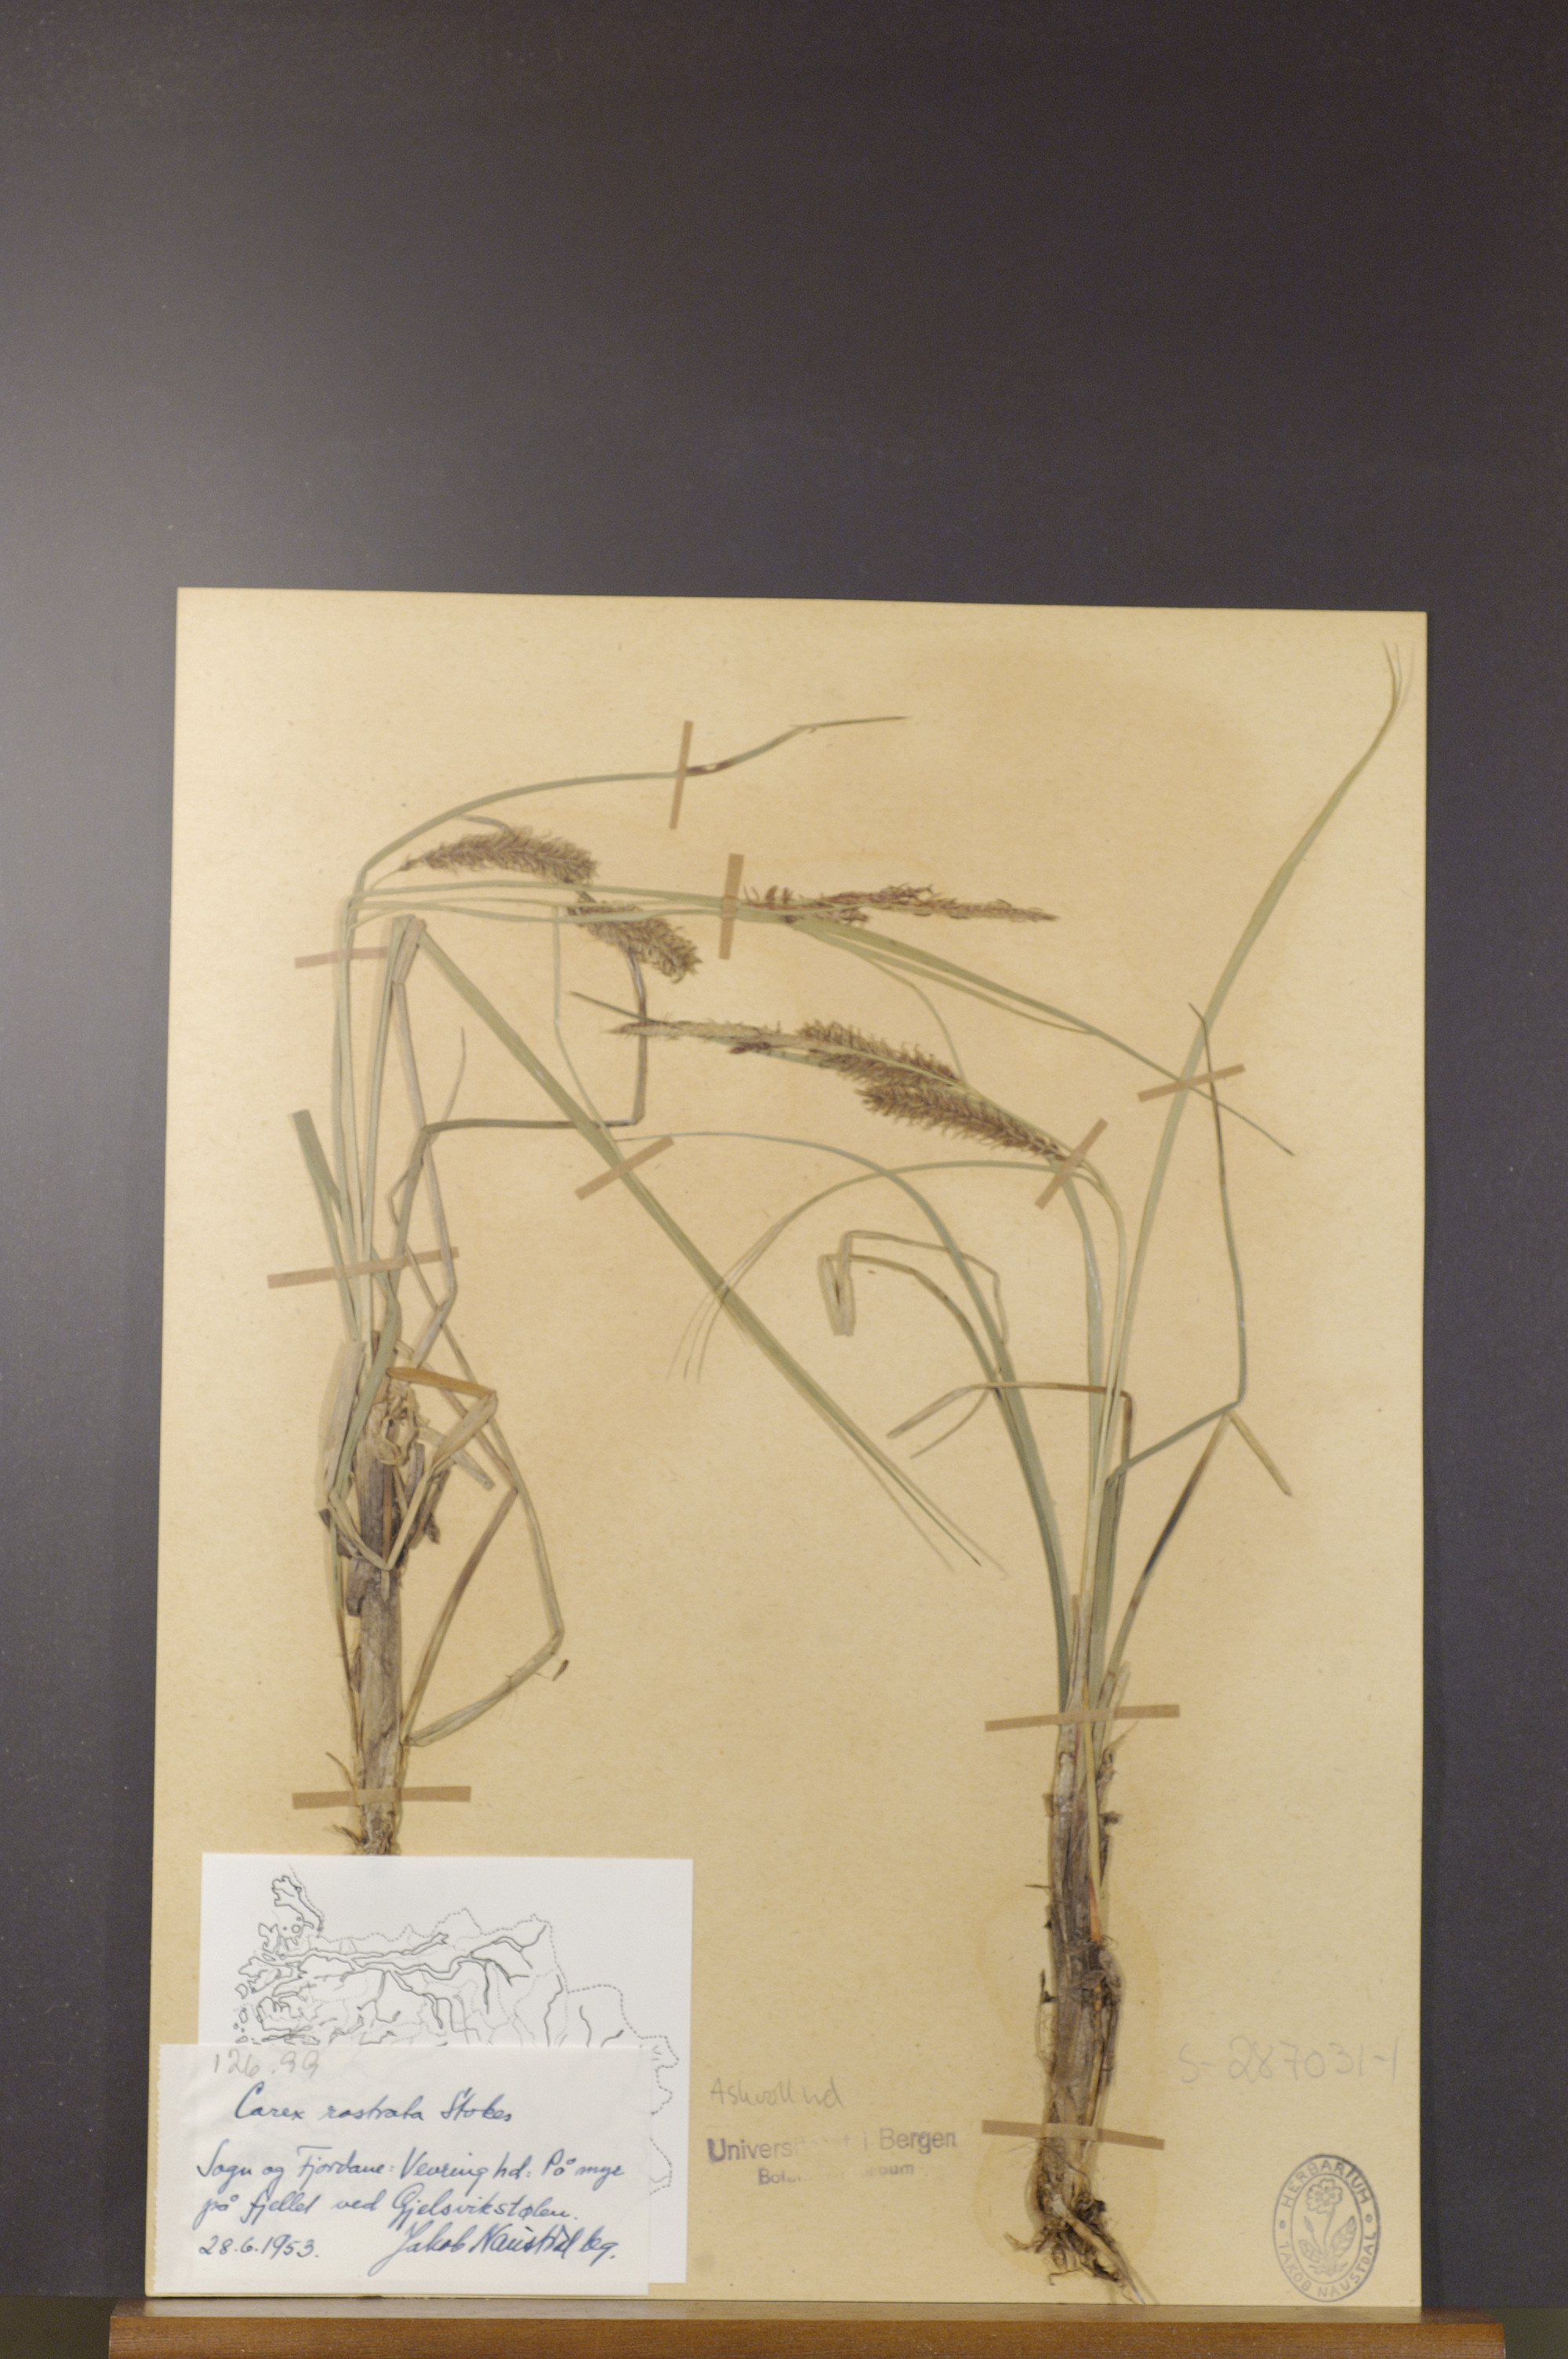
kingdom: Plantae
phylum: Tracheophyta
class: Liliopsida
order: Poales
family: Cyperaceae
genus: Carex
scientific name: Carex rostrata
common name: Bottle sedge
